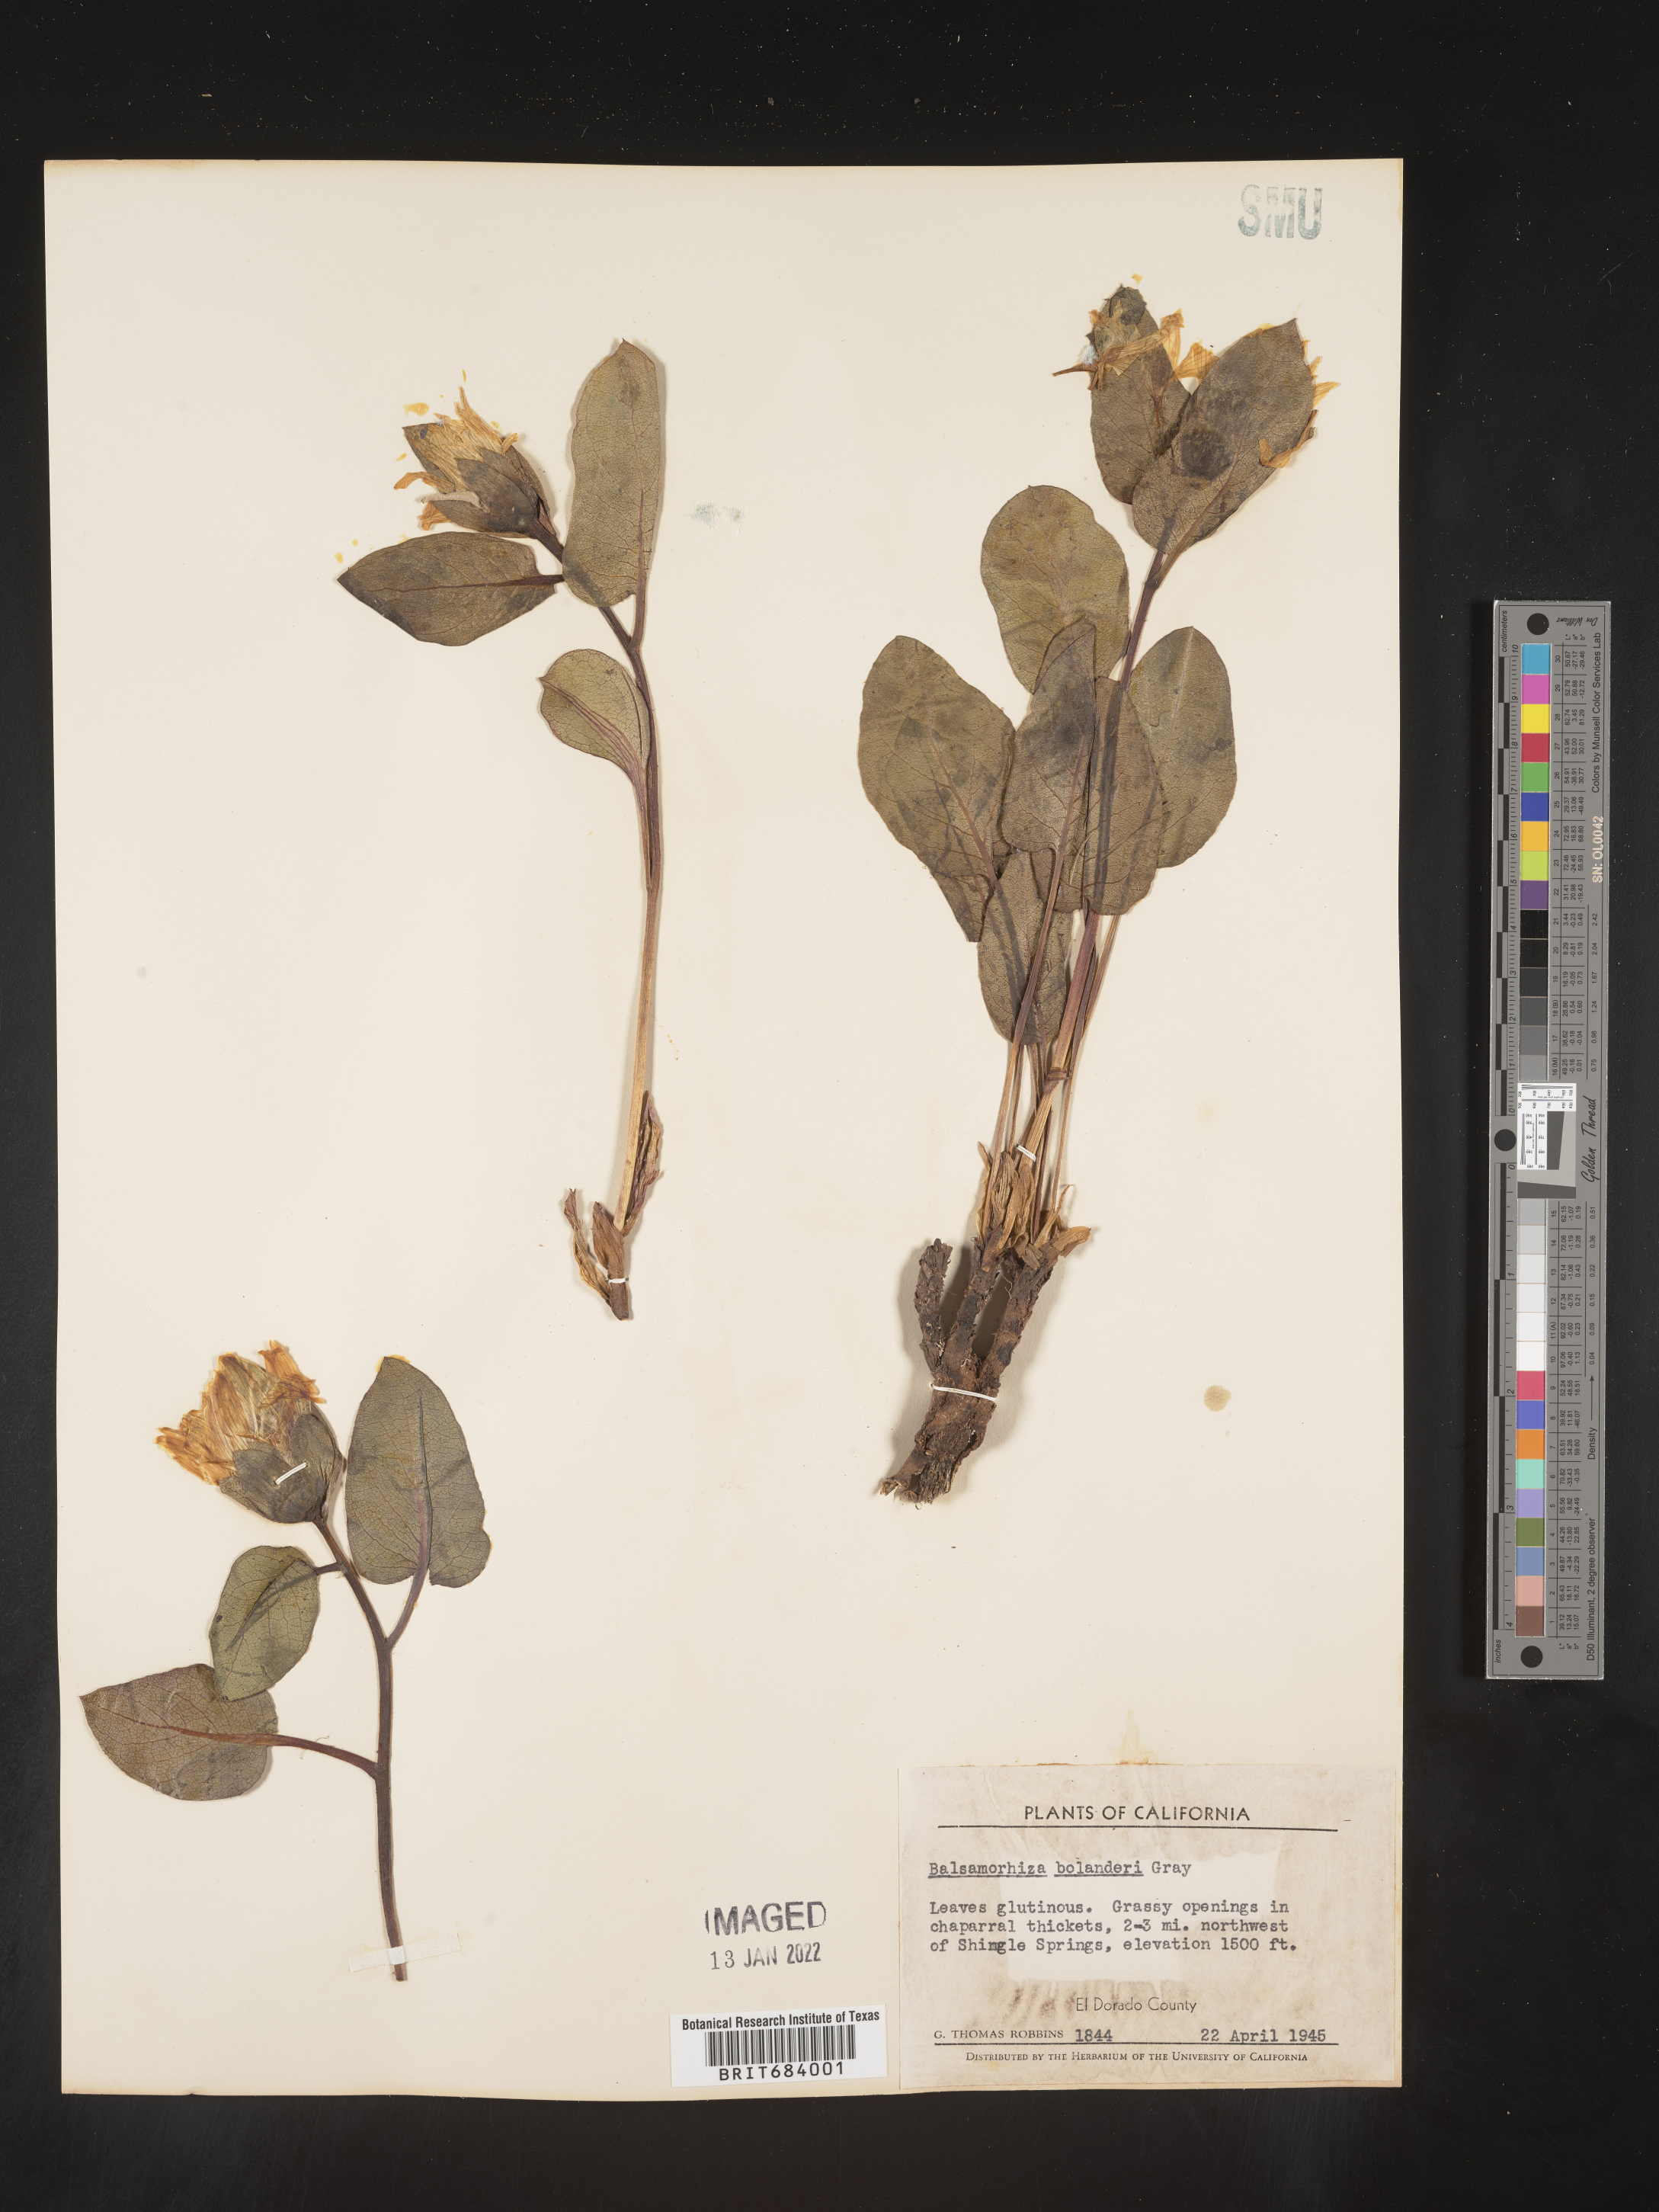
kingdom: Plantae
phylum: Tracheophyta
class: Magnoliopsida
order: Asterales
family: Asteraceae
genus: Balsamorhiza
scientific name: Balsamorhiza
